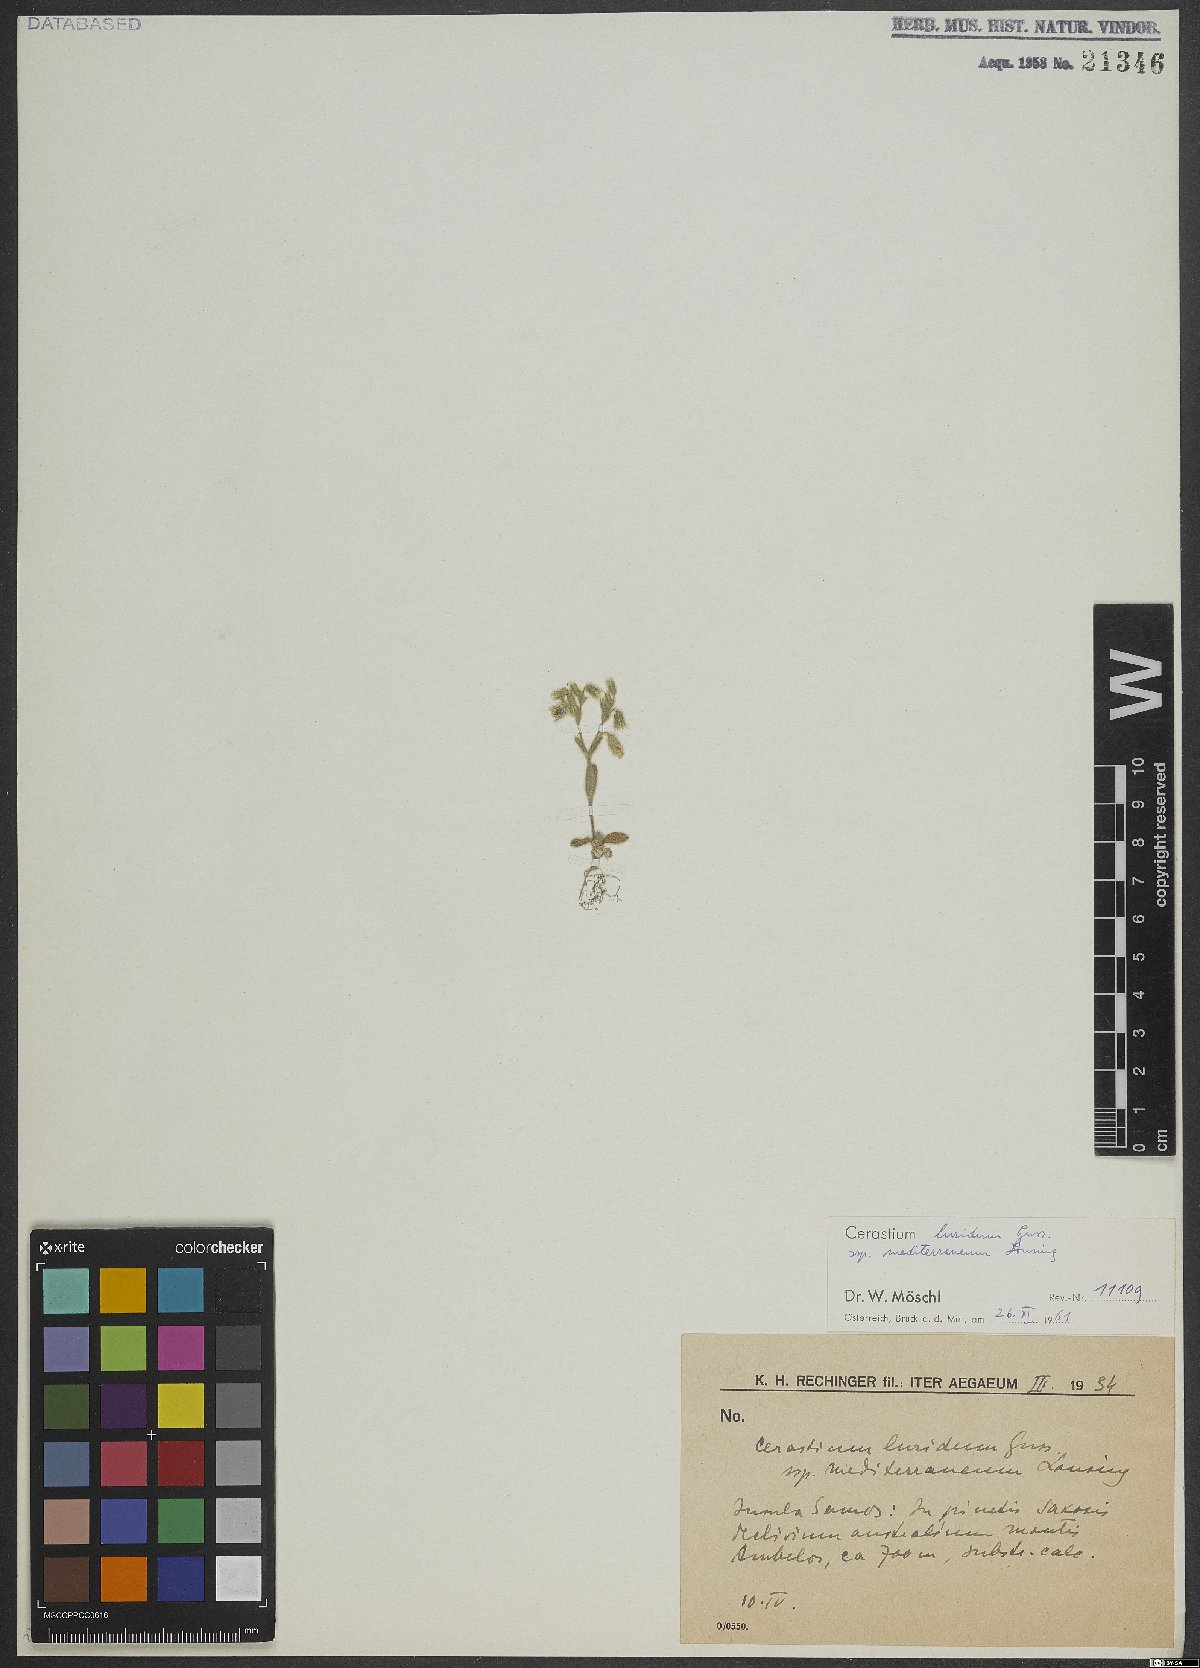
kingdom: Plantae
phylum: Tracheophyta
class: Magnoliopsida
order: Caryophyllales
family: Caryophyllaceae
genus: Cerastium
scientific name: Cerastium brachypetalum
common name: Grey mouse-ear
